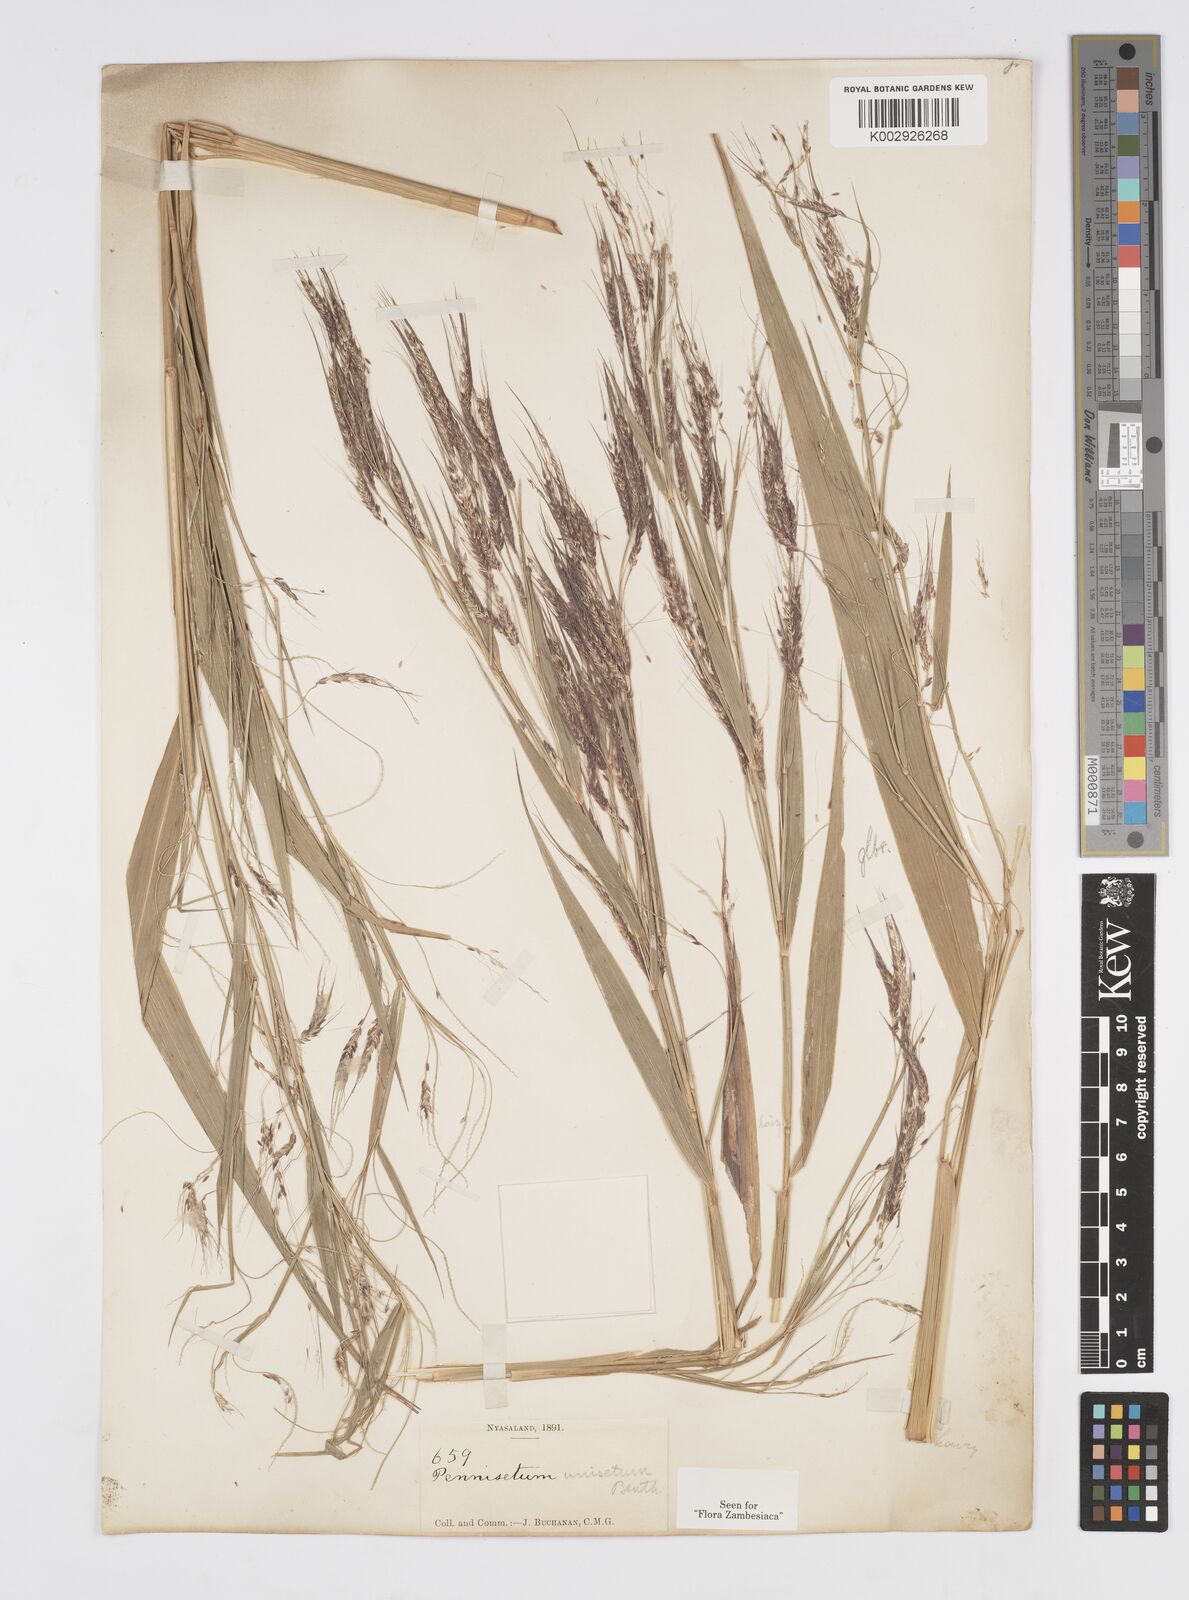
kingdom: Plantae
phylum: Tracheophyta
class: Liliopsida
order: Poales
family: Poaceae
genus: Cenchrus
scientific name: Cenchrus unisetus
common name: Natal grass
